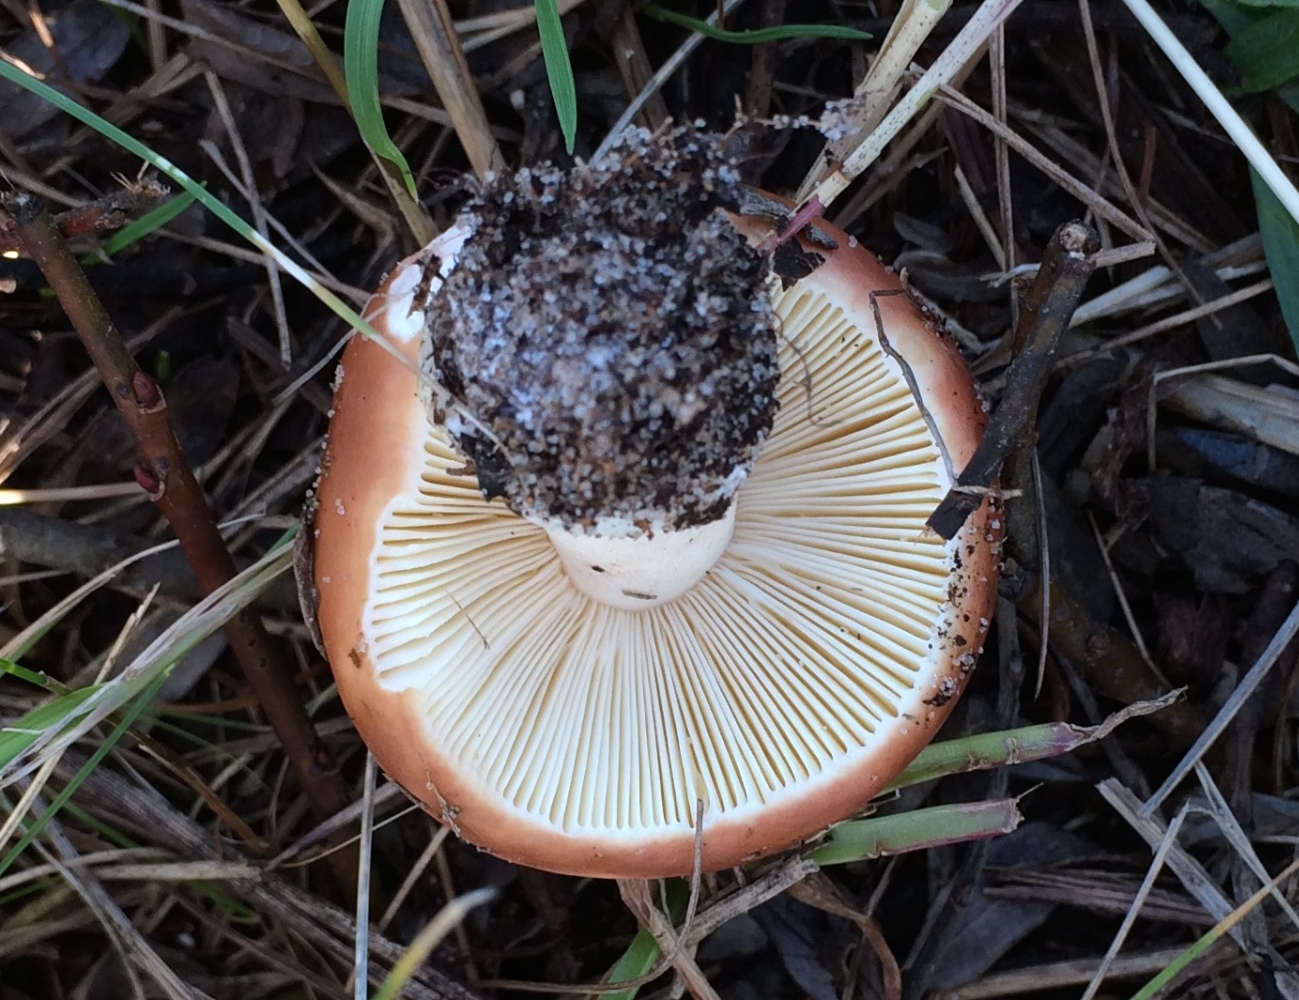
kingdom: Fungi
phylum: Basidiomycota
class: Agaricomycetes
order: Russulales
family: Russulaceae
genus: Russula
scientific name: Russula subrubens
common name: pile-skørhat
